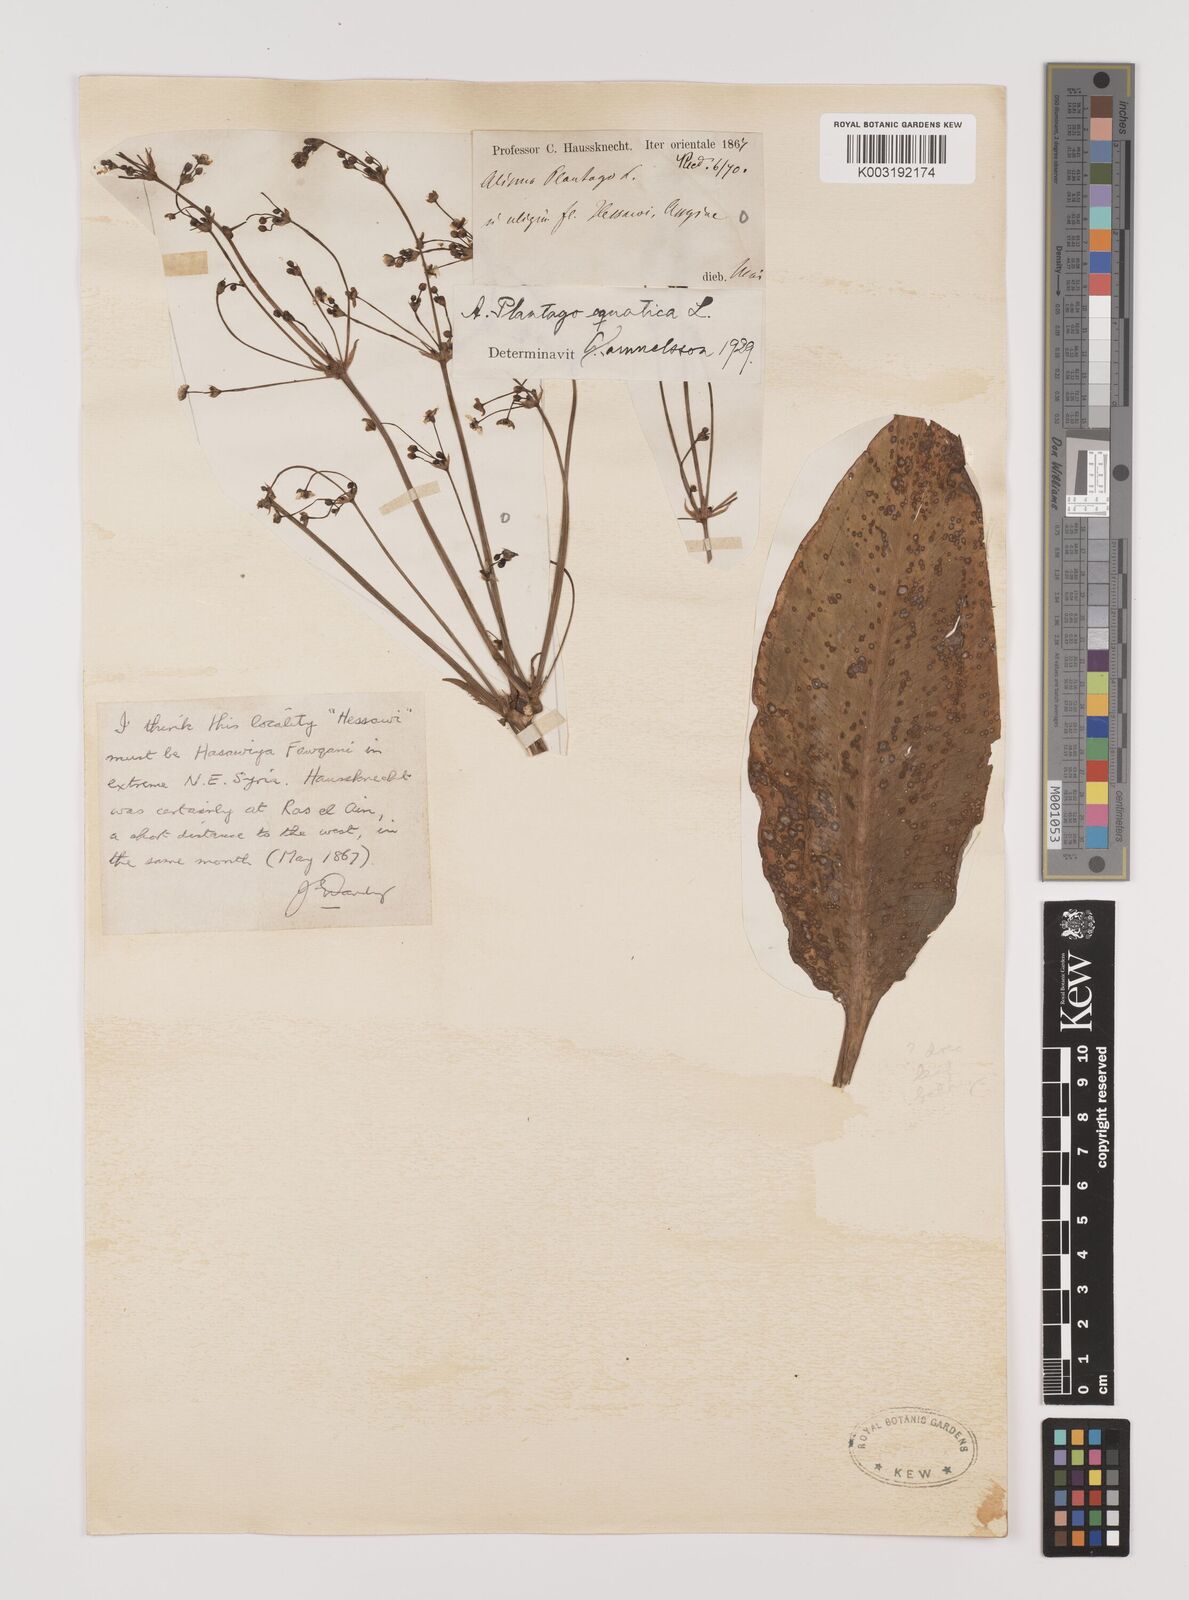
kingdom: Plantae
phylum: Tracheophyta
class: Liliopsida
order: Alismatales
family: Alismataceae
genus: Alisma
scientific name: Alisma plantago-aquatica
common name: Water-plantain
